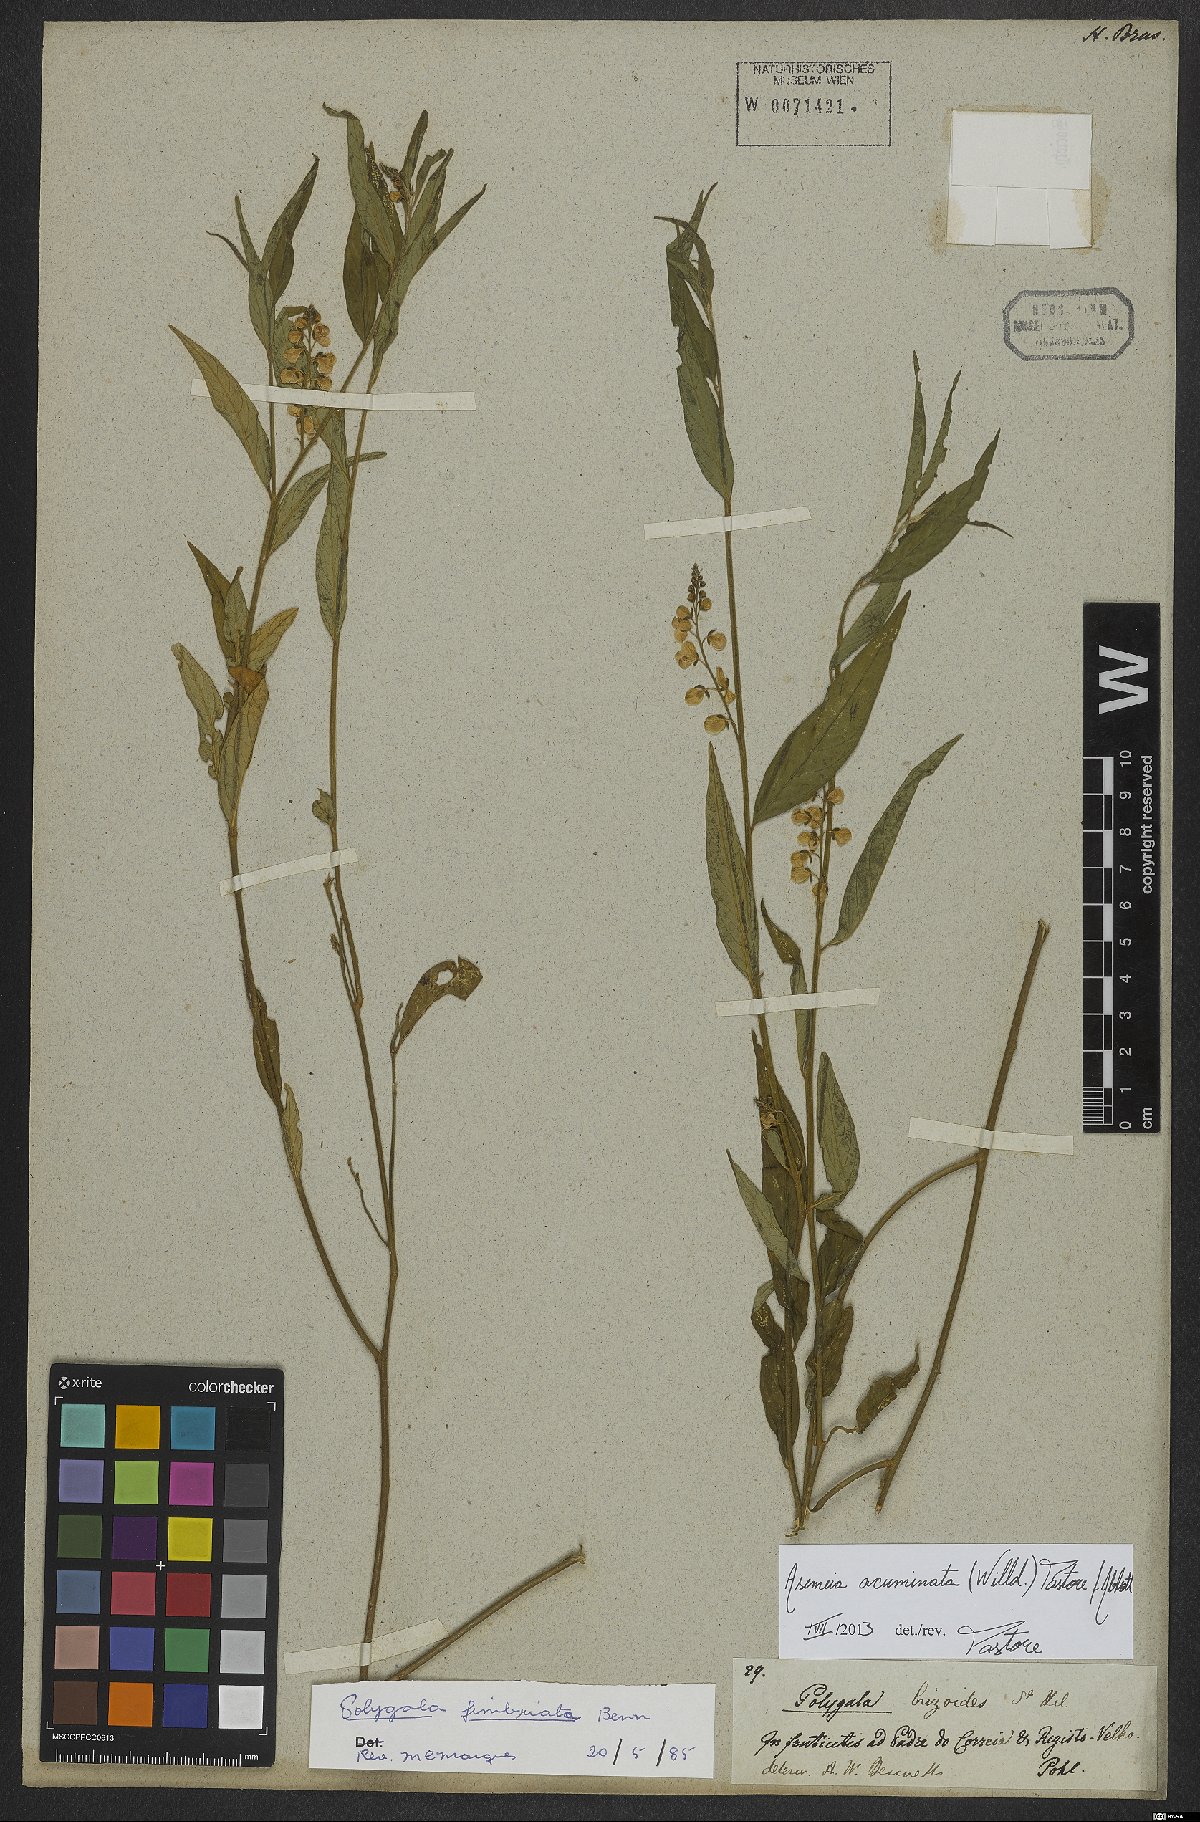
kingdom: Plantae
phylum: Tracheophyta
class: Magnoliopsida
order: Fabales
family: Polygalaceae
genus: Asemeia
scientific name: Asemeia acuminata
